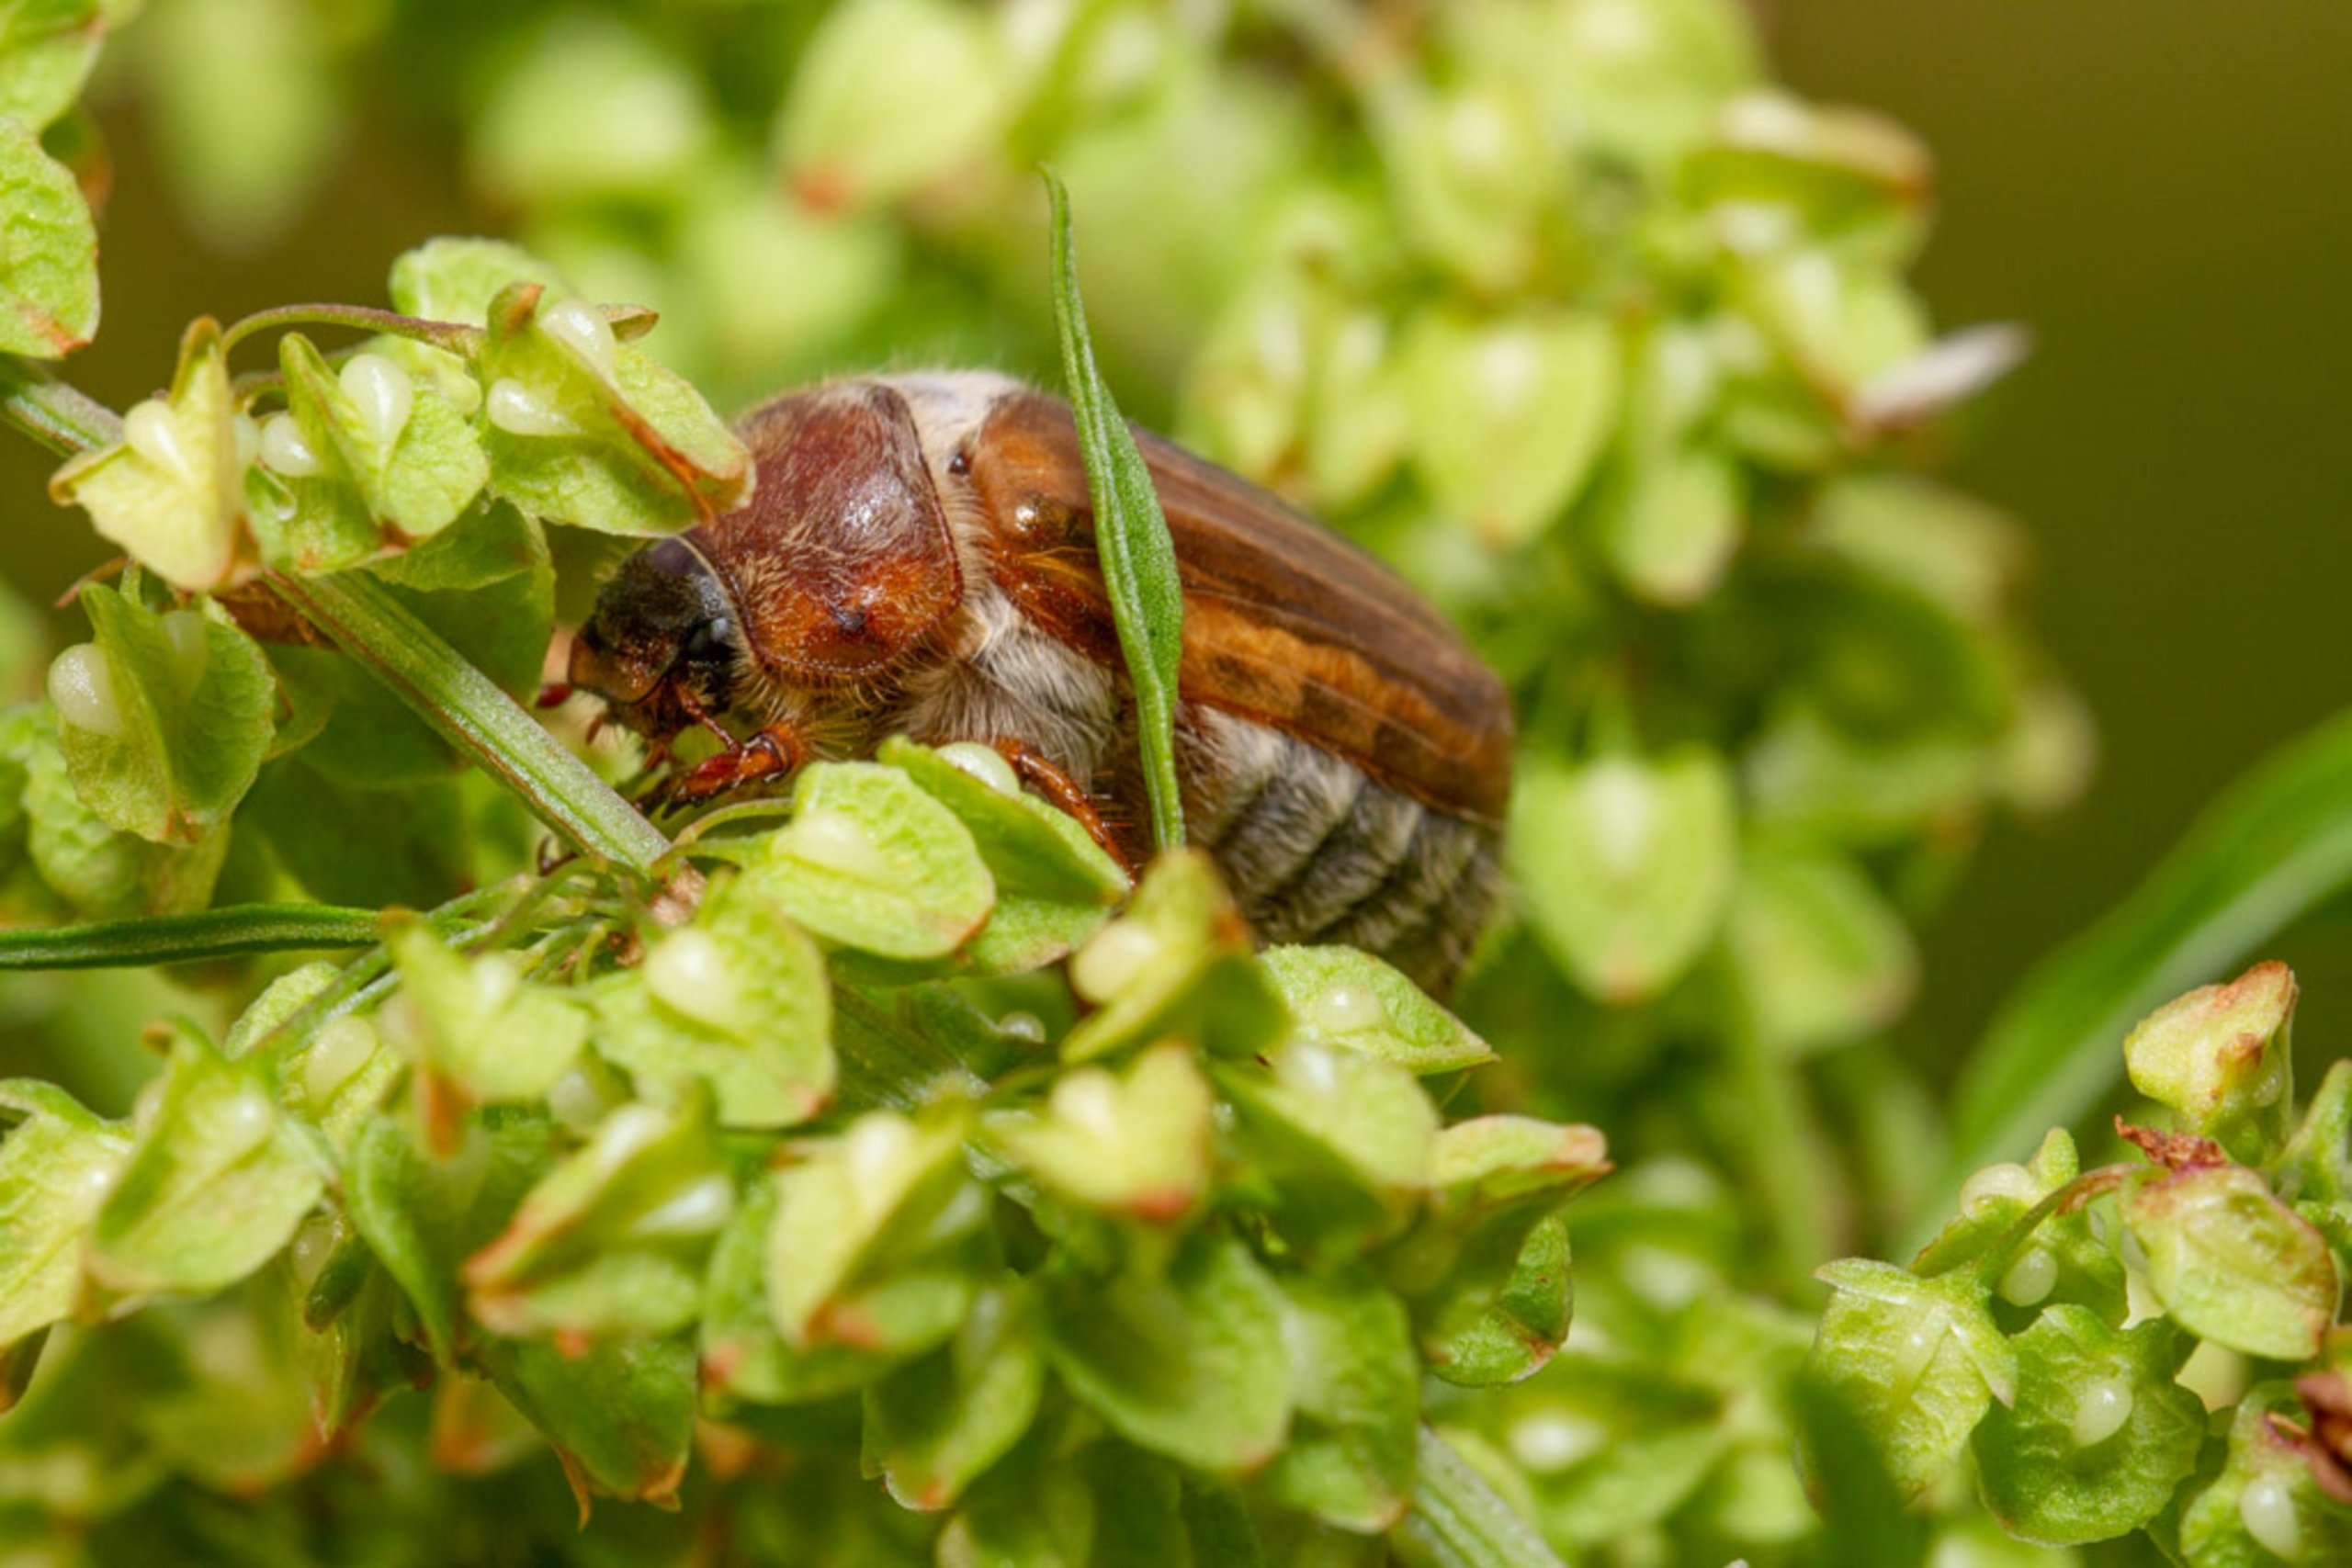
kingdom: Animalia
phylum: Arthropoda
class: Insecta
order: Coleoptera
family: Scarabaeidae
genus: Amphimallon
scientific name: Amphimallon solstitiale
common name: Sankthansoldenborre
